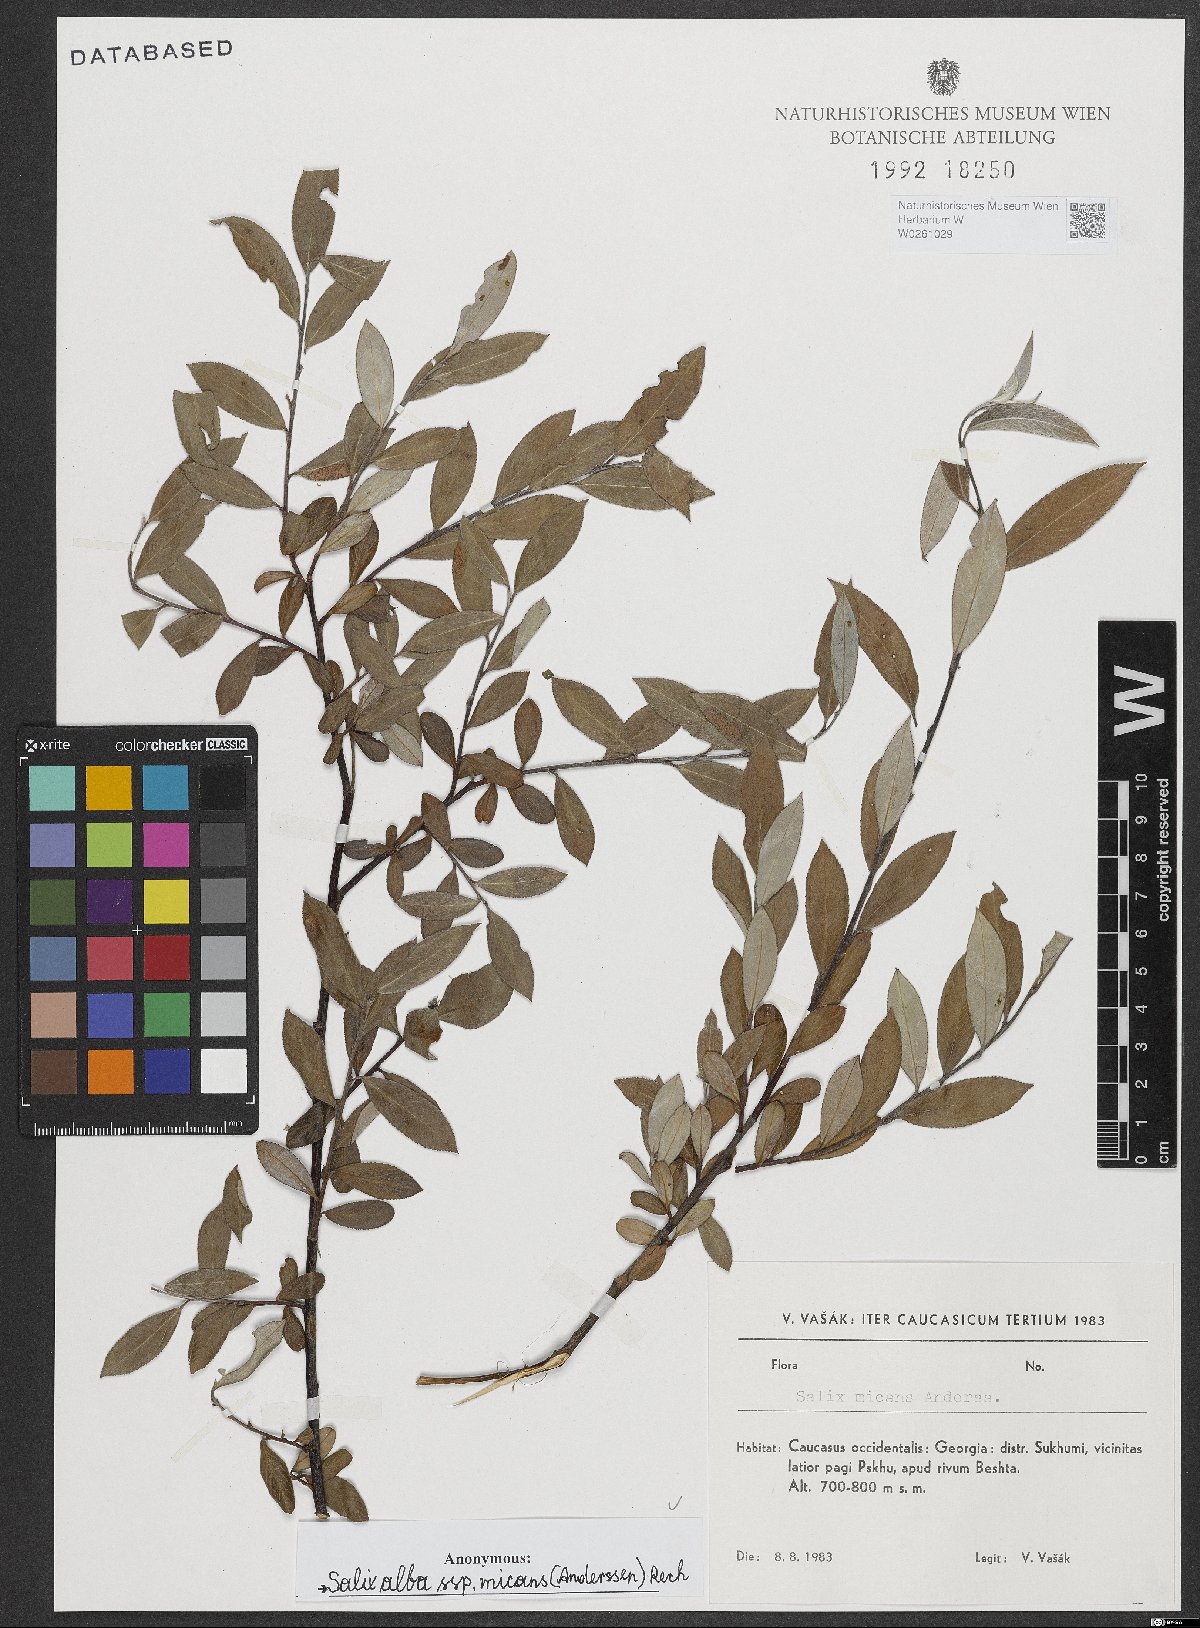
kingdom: Plantae
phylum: Tracheophyta
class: Magnoliopsida
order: Malpighiales
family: Salicaceae
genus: Salix
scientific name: Salix alba
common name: White willow
